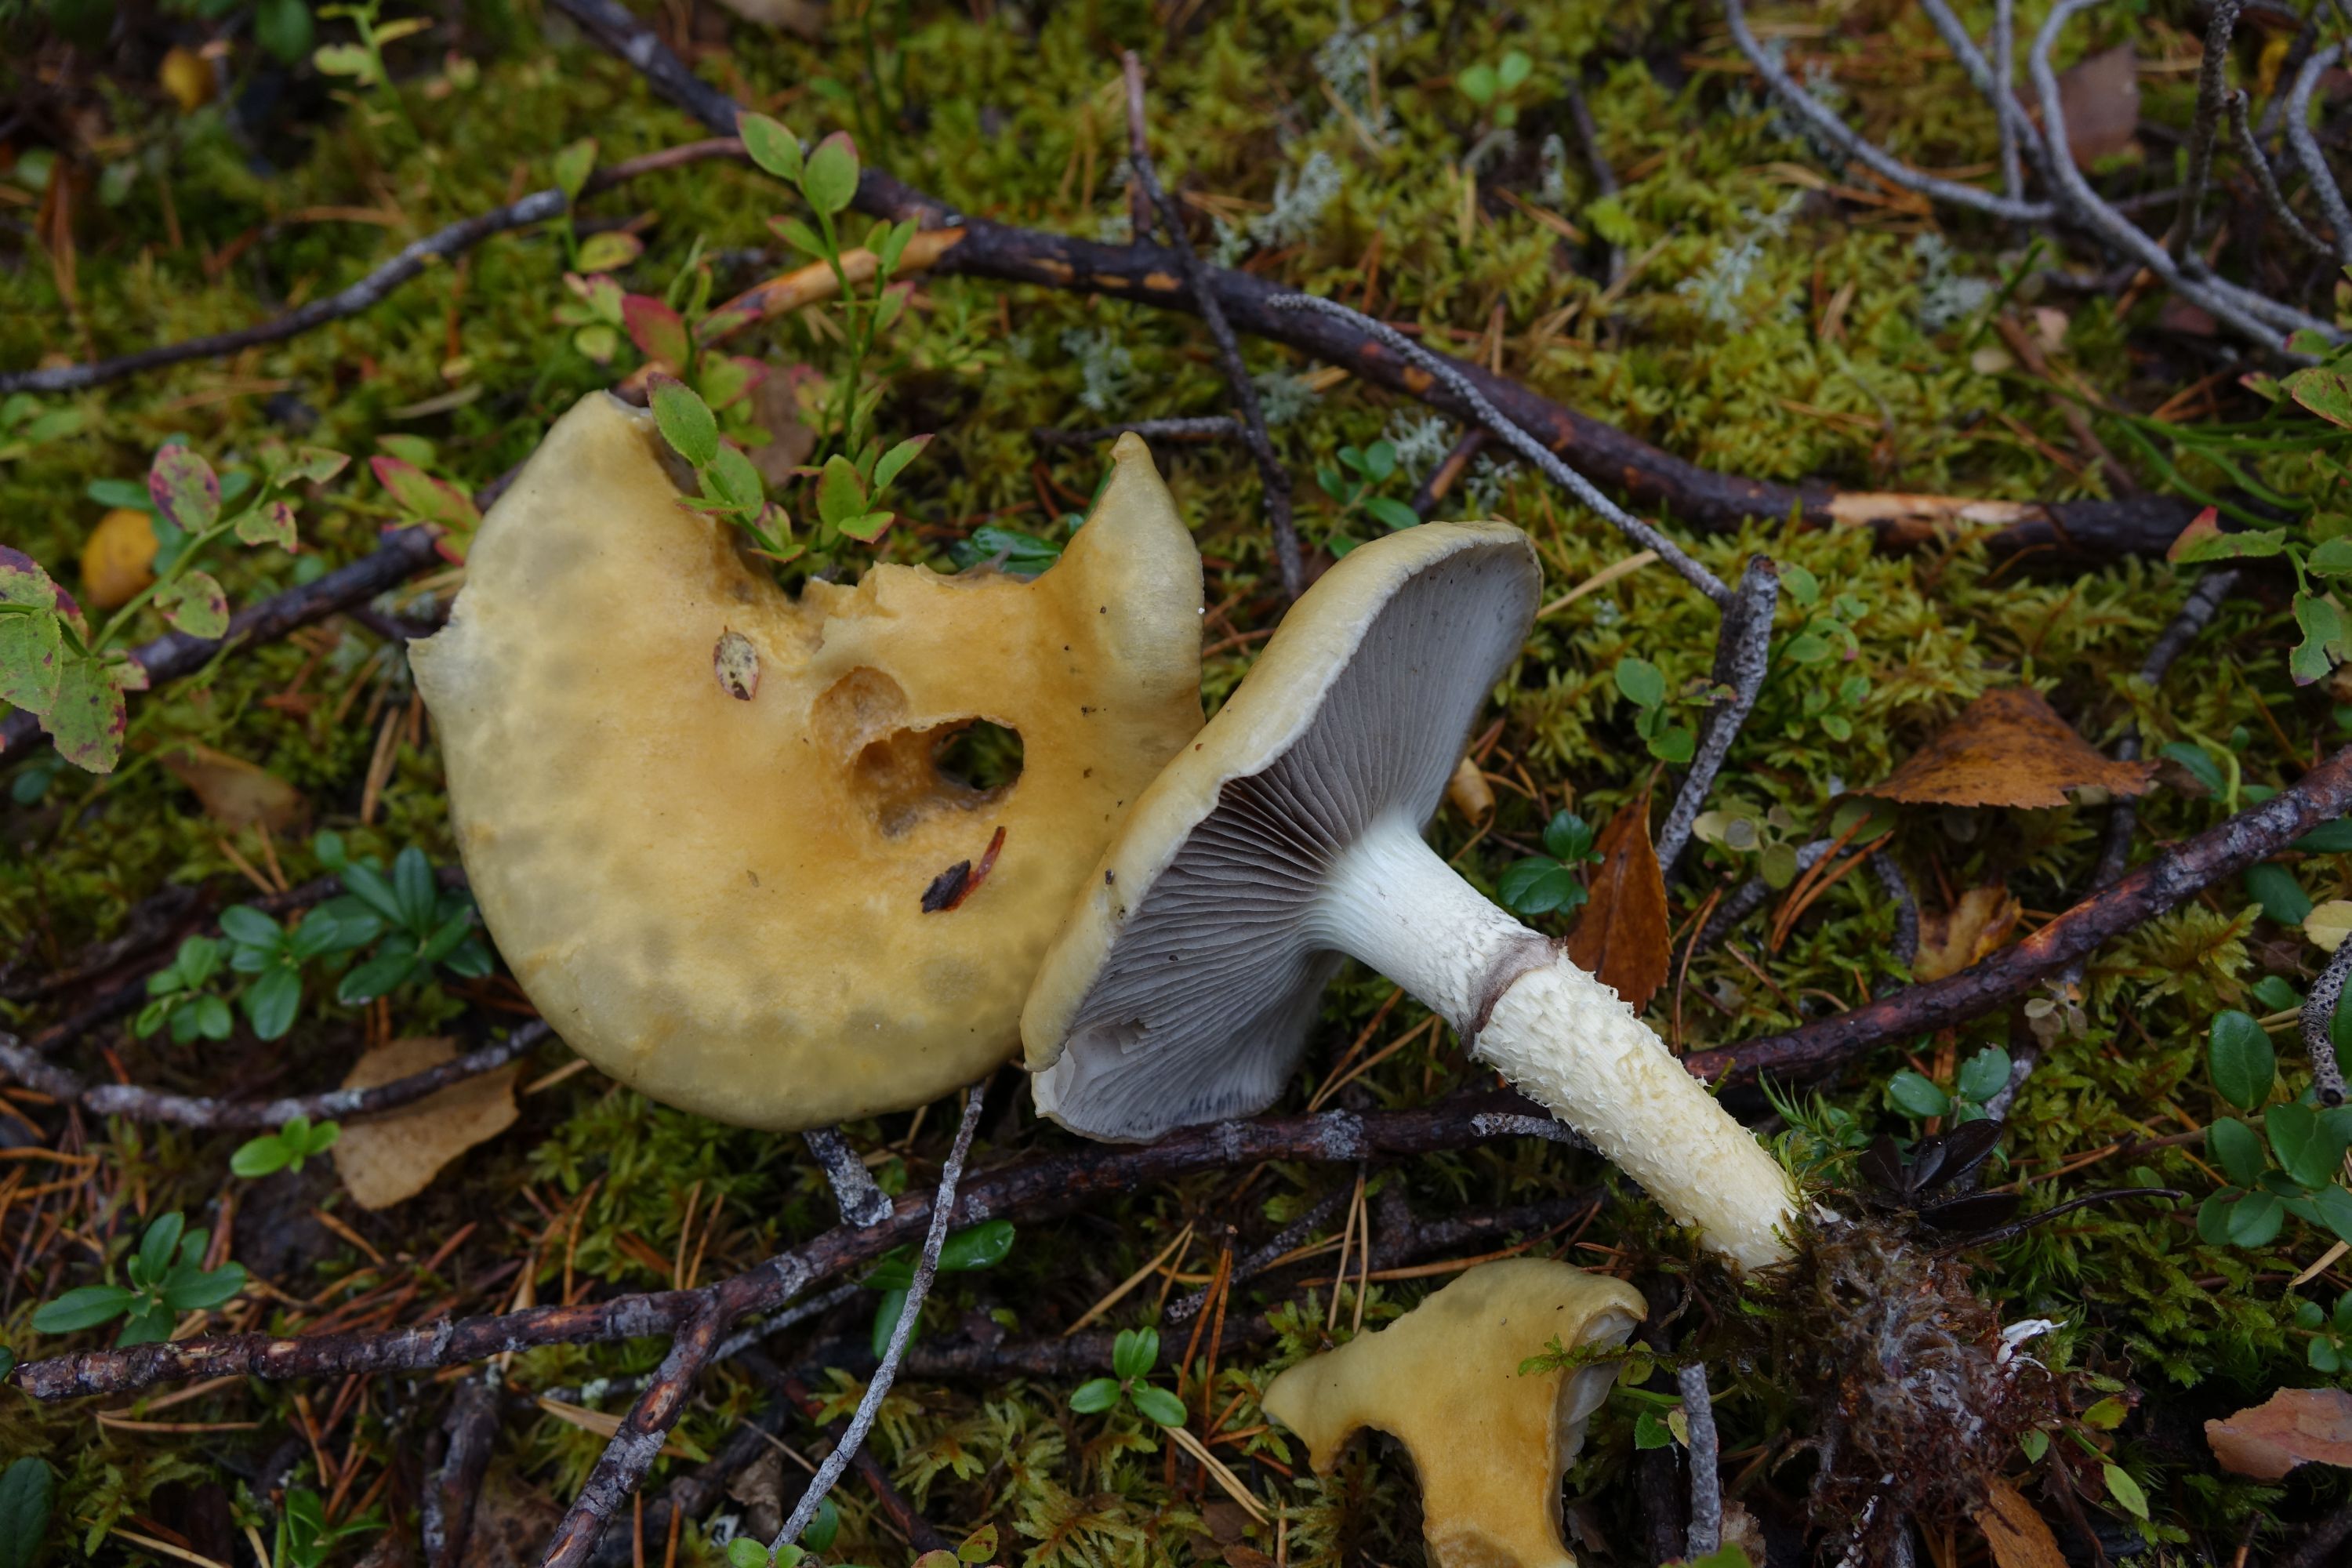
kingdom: Fungi
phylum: Basidiomycota
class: Agaricomycetes
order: Agaricales
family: Strophariaceae
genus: Stropharia
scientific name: Stropharia hornemannii
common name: Conifer roundhead
